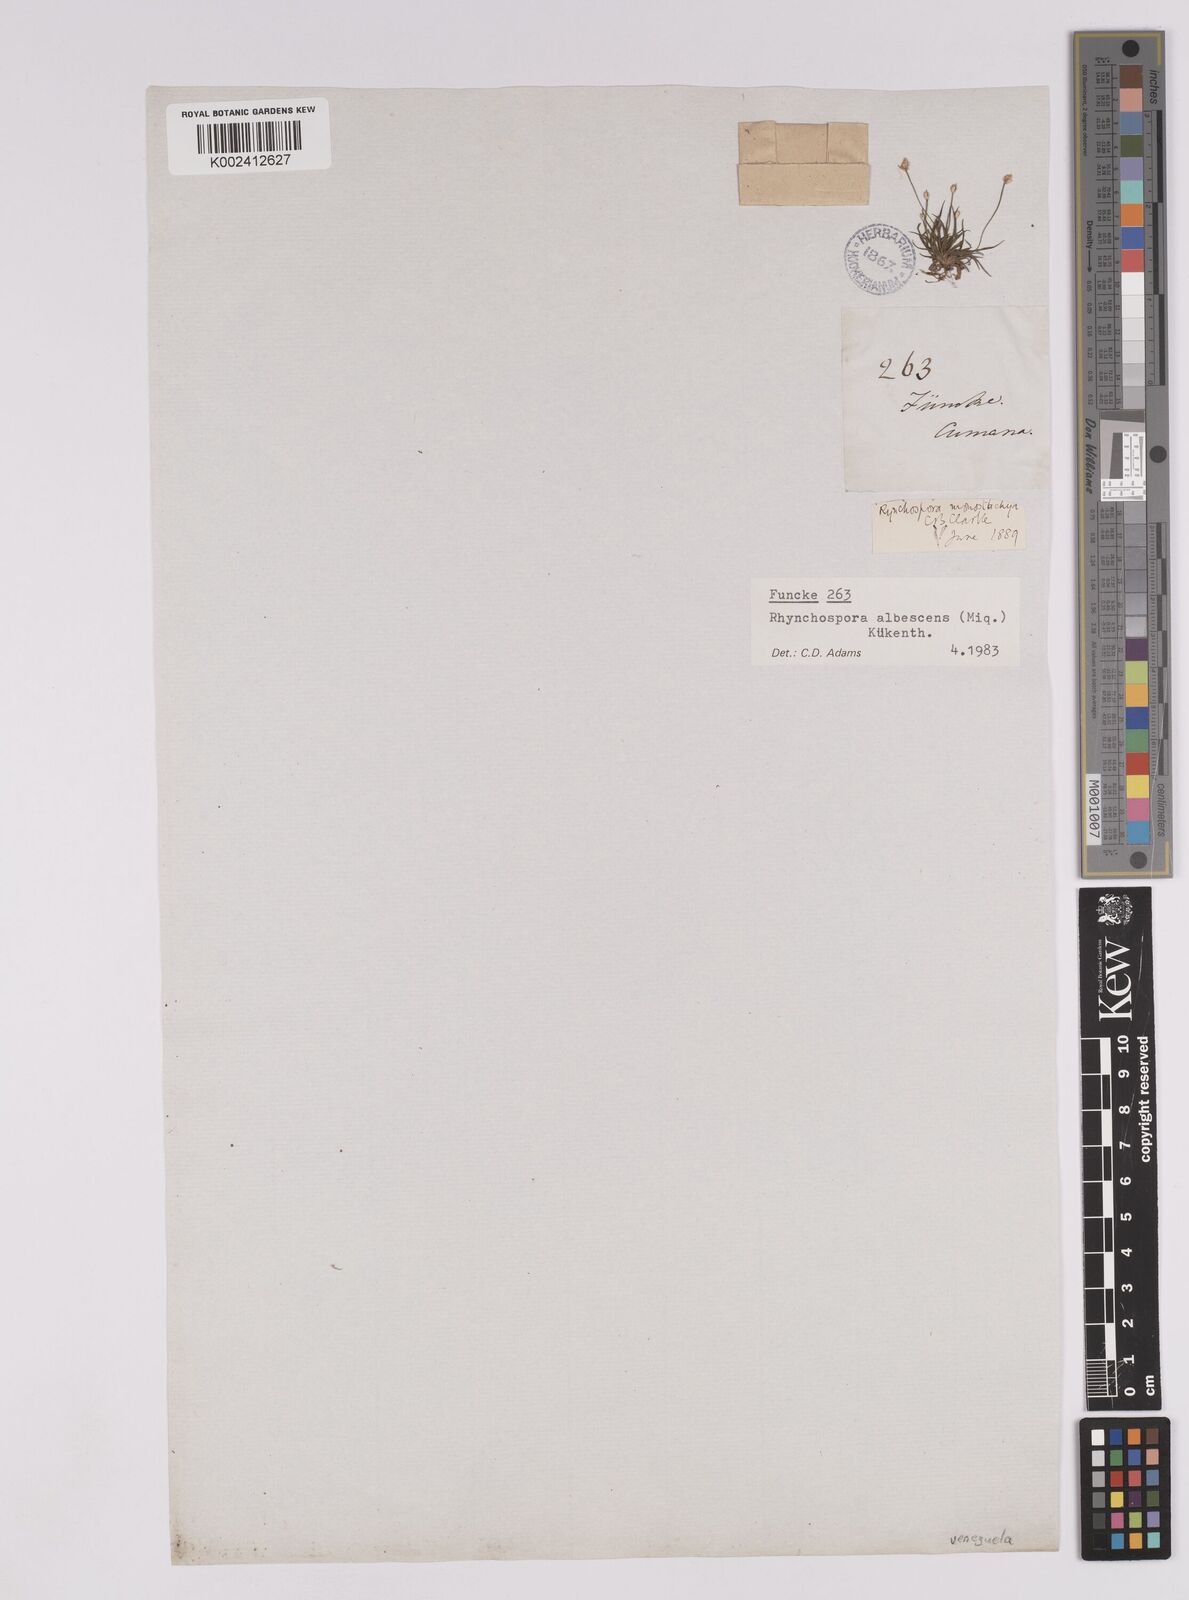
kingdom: Plantae
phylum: Tracheophyta
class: Liliopsida
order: Poales
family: Cyperaceae
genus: Rhynchospora
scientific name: Rhynchospora albescens
